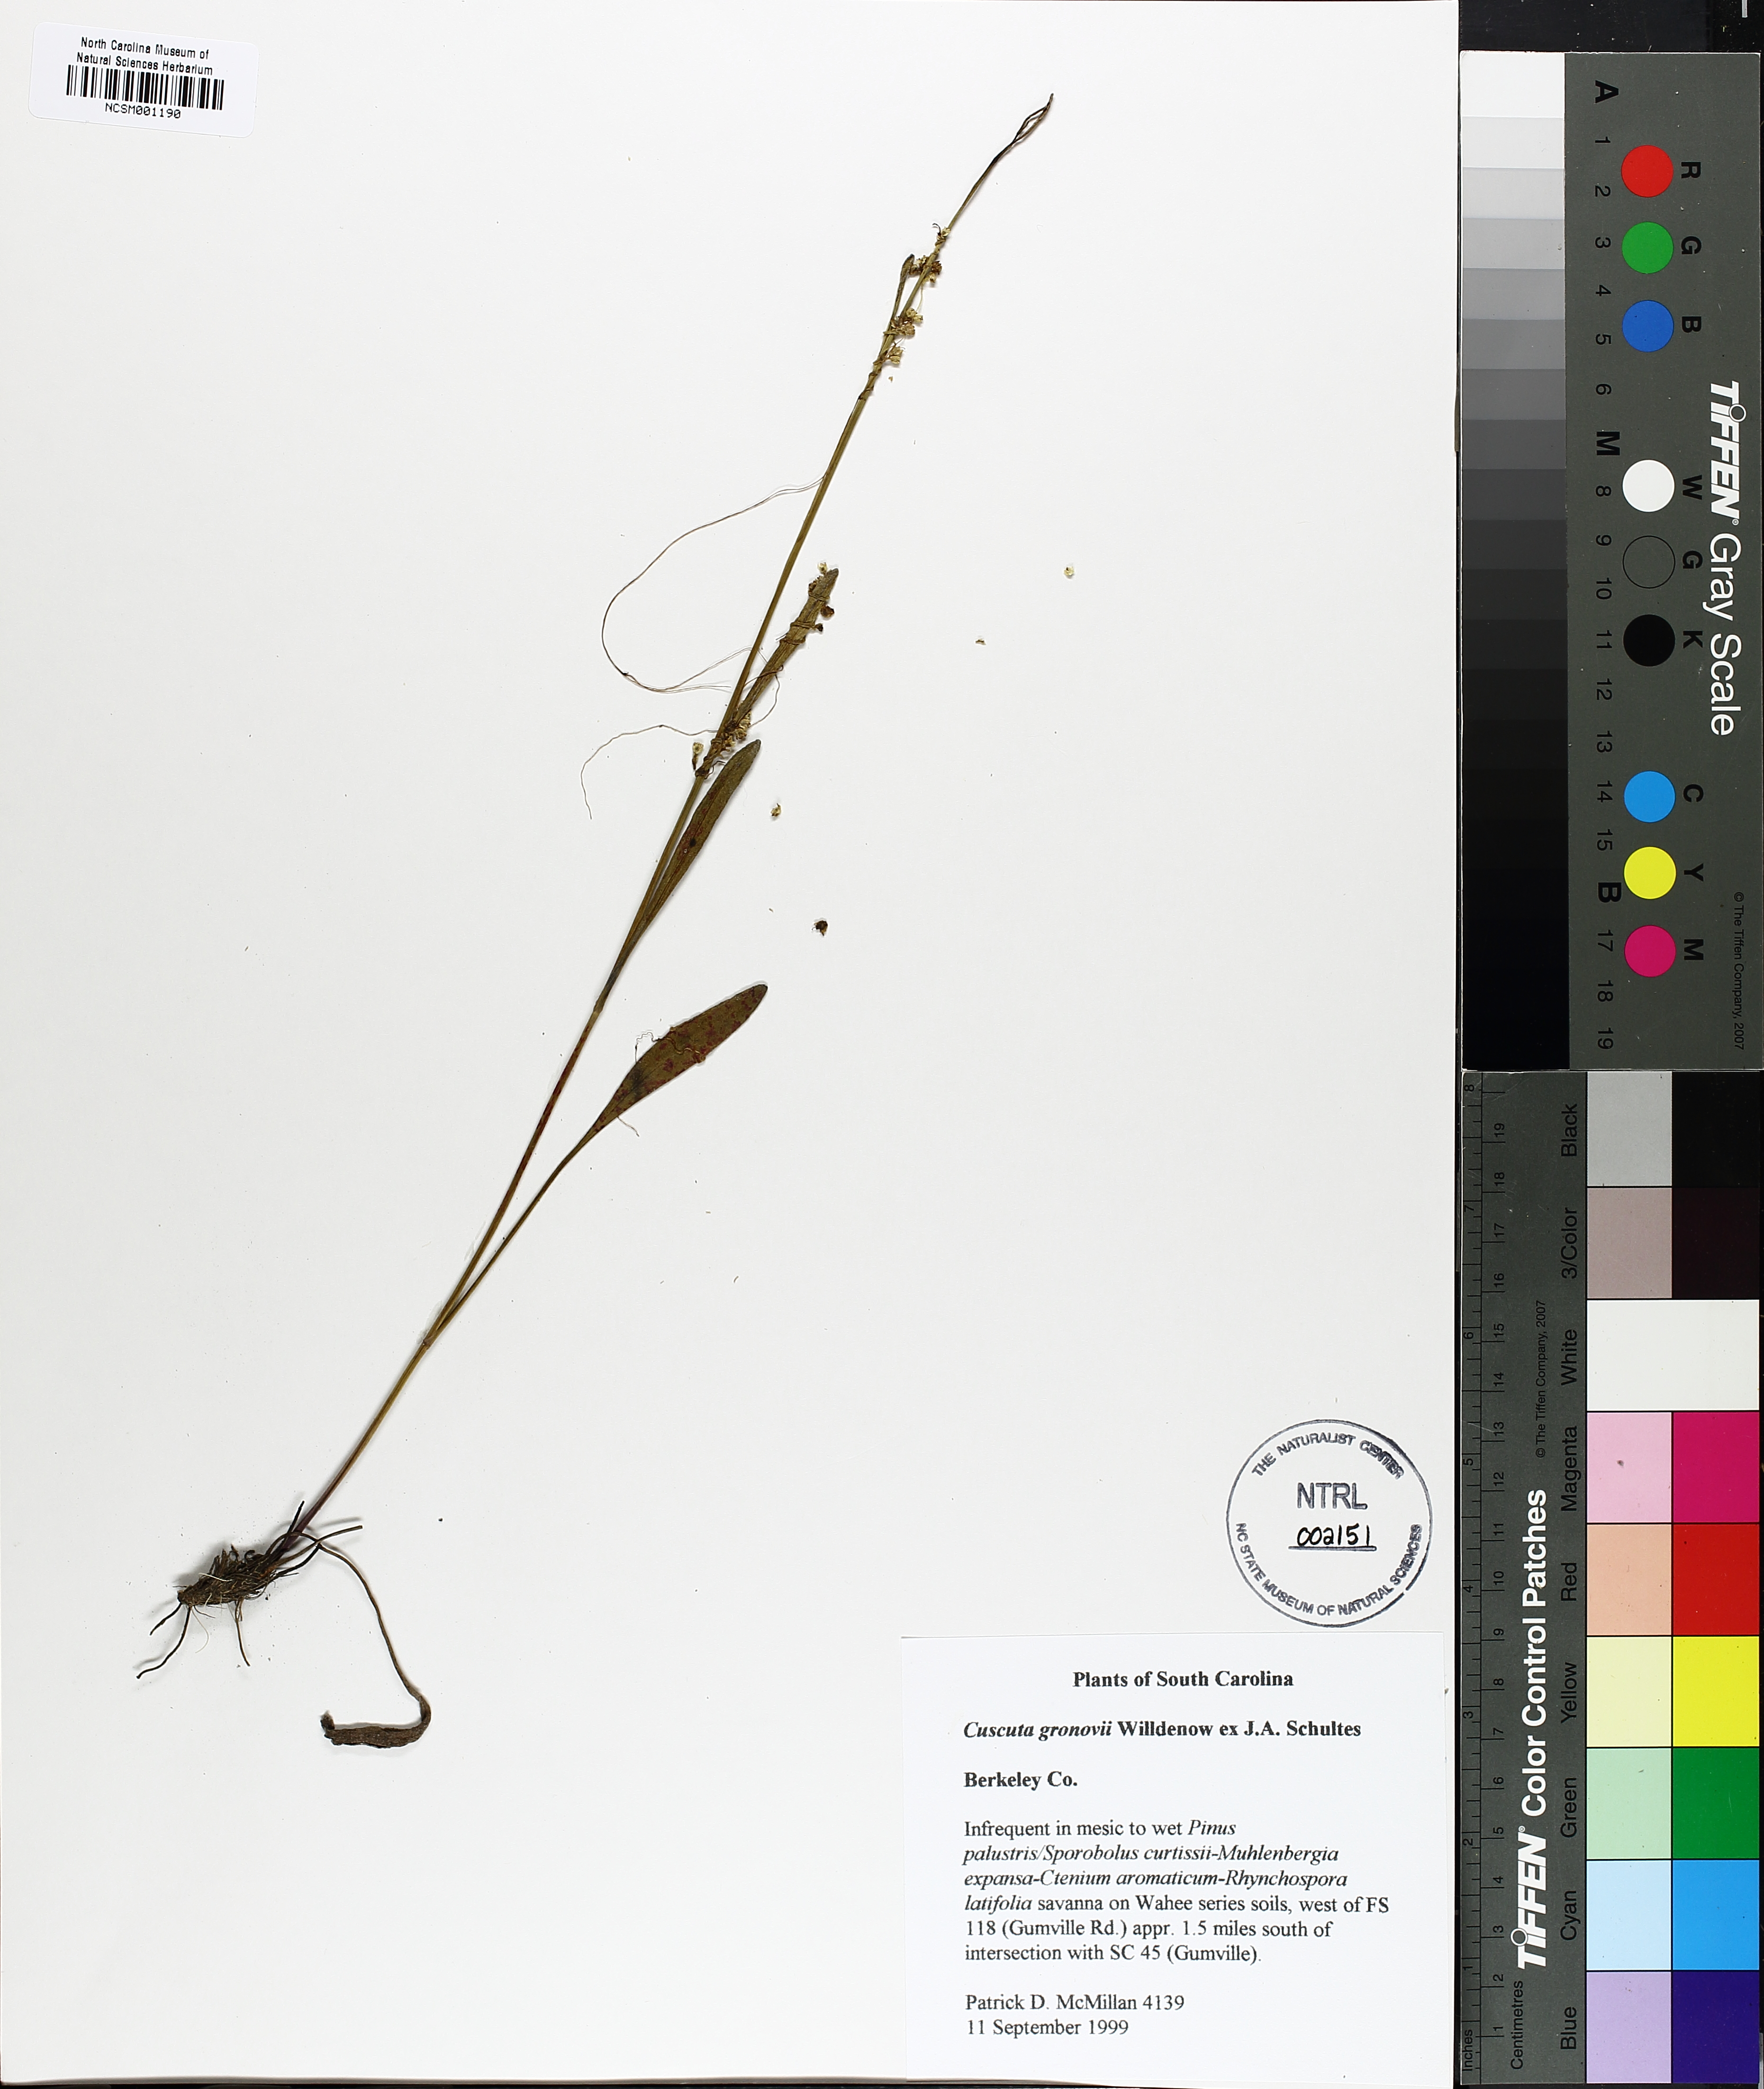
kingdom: Plantae
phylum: Tracheophyta
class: Magnoliopsida
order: Solanales
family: Convolvulaceae
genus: Cuscuta
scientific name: Cuscuta gronovii
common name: Common dodder
